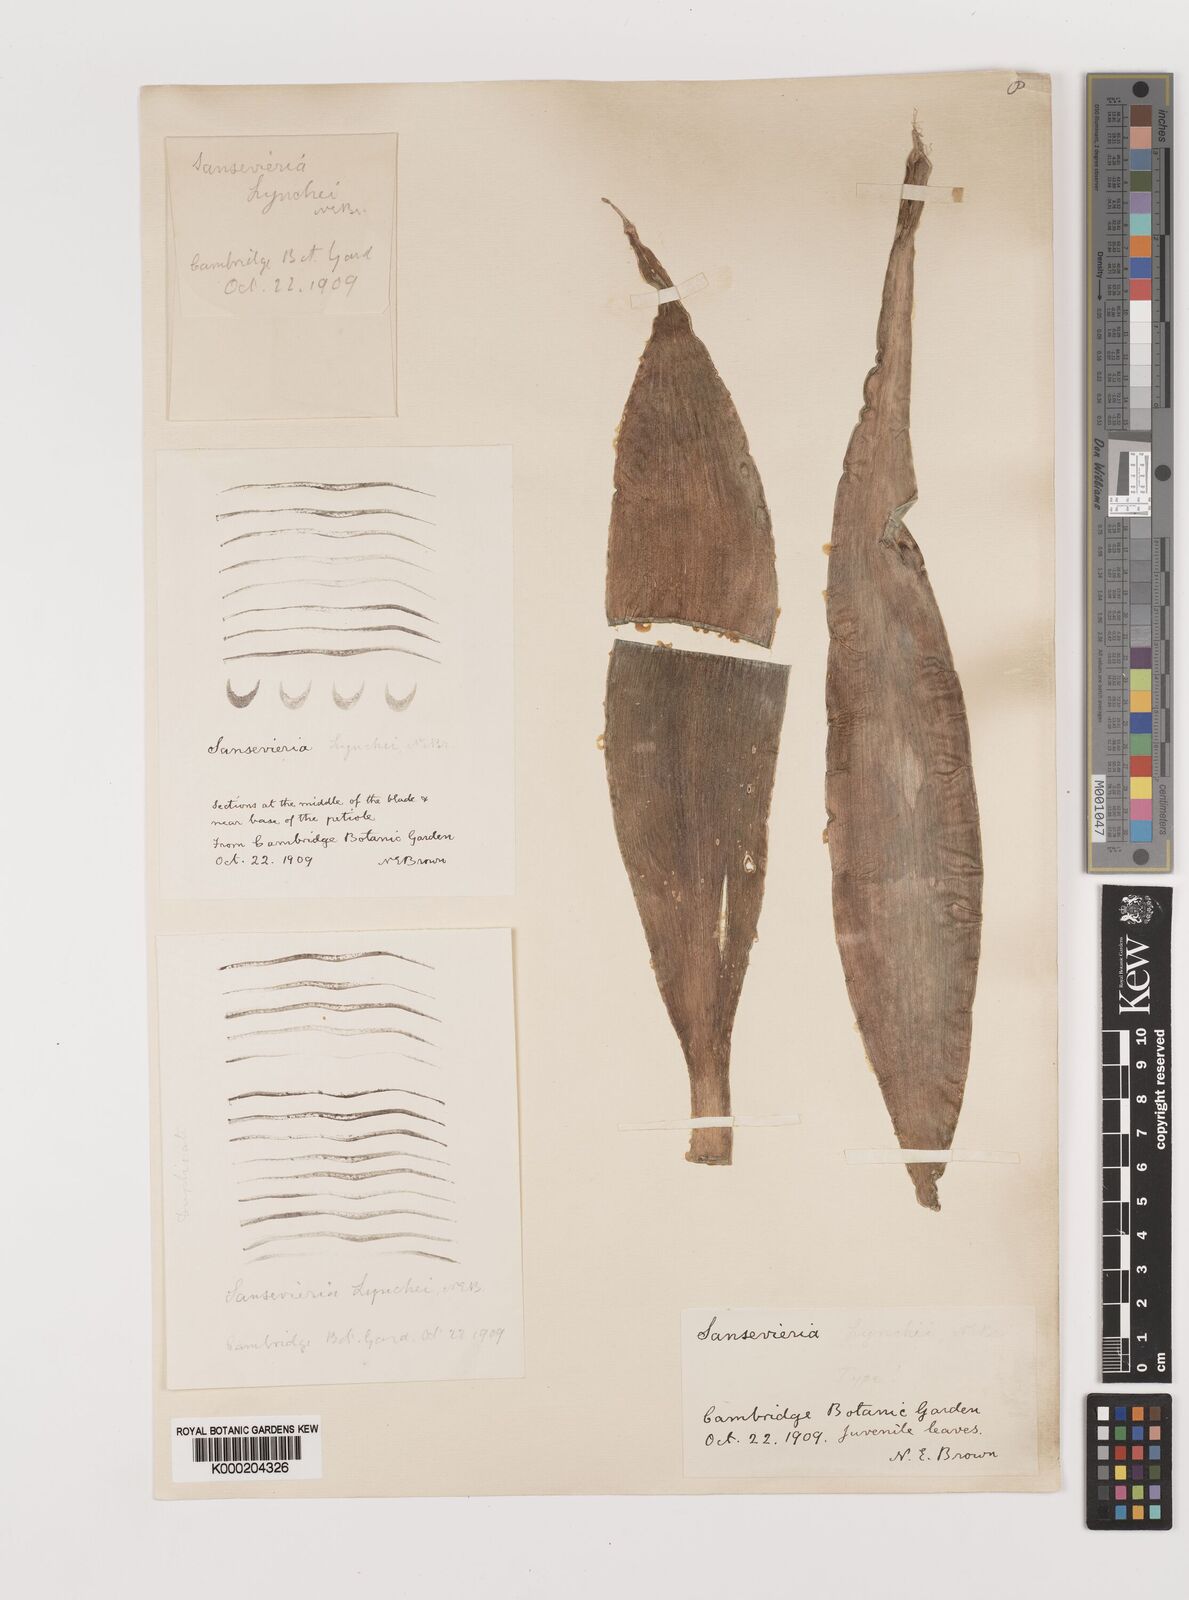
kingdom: Plantae
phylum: Tracheophyta
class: Liliopsida
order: Asparagales
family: Asparagaceae
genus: Dracaena
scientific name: Dracaena
